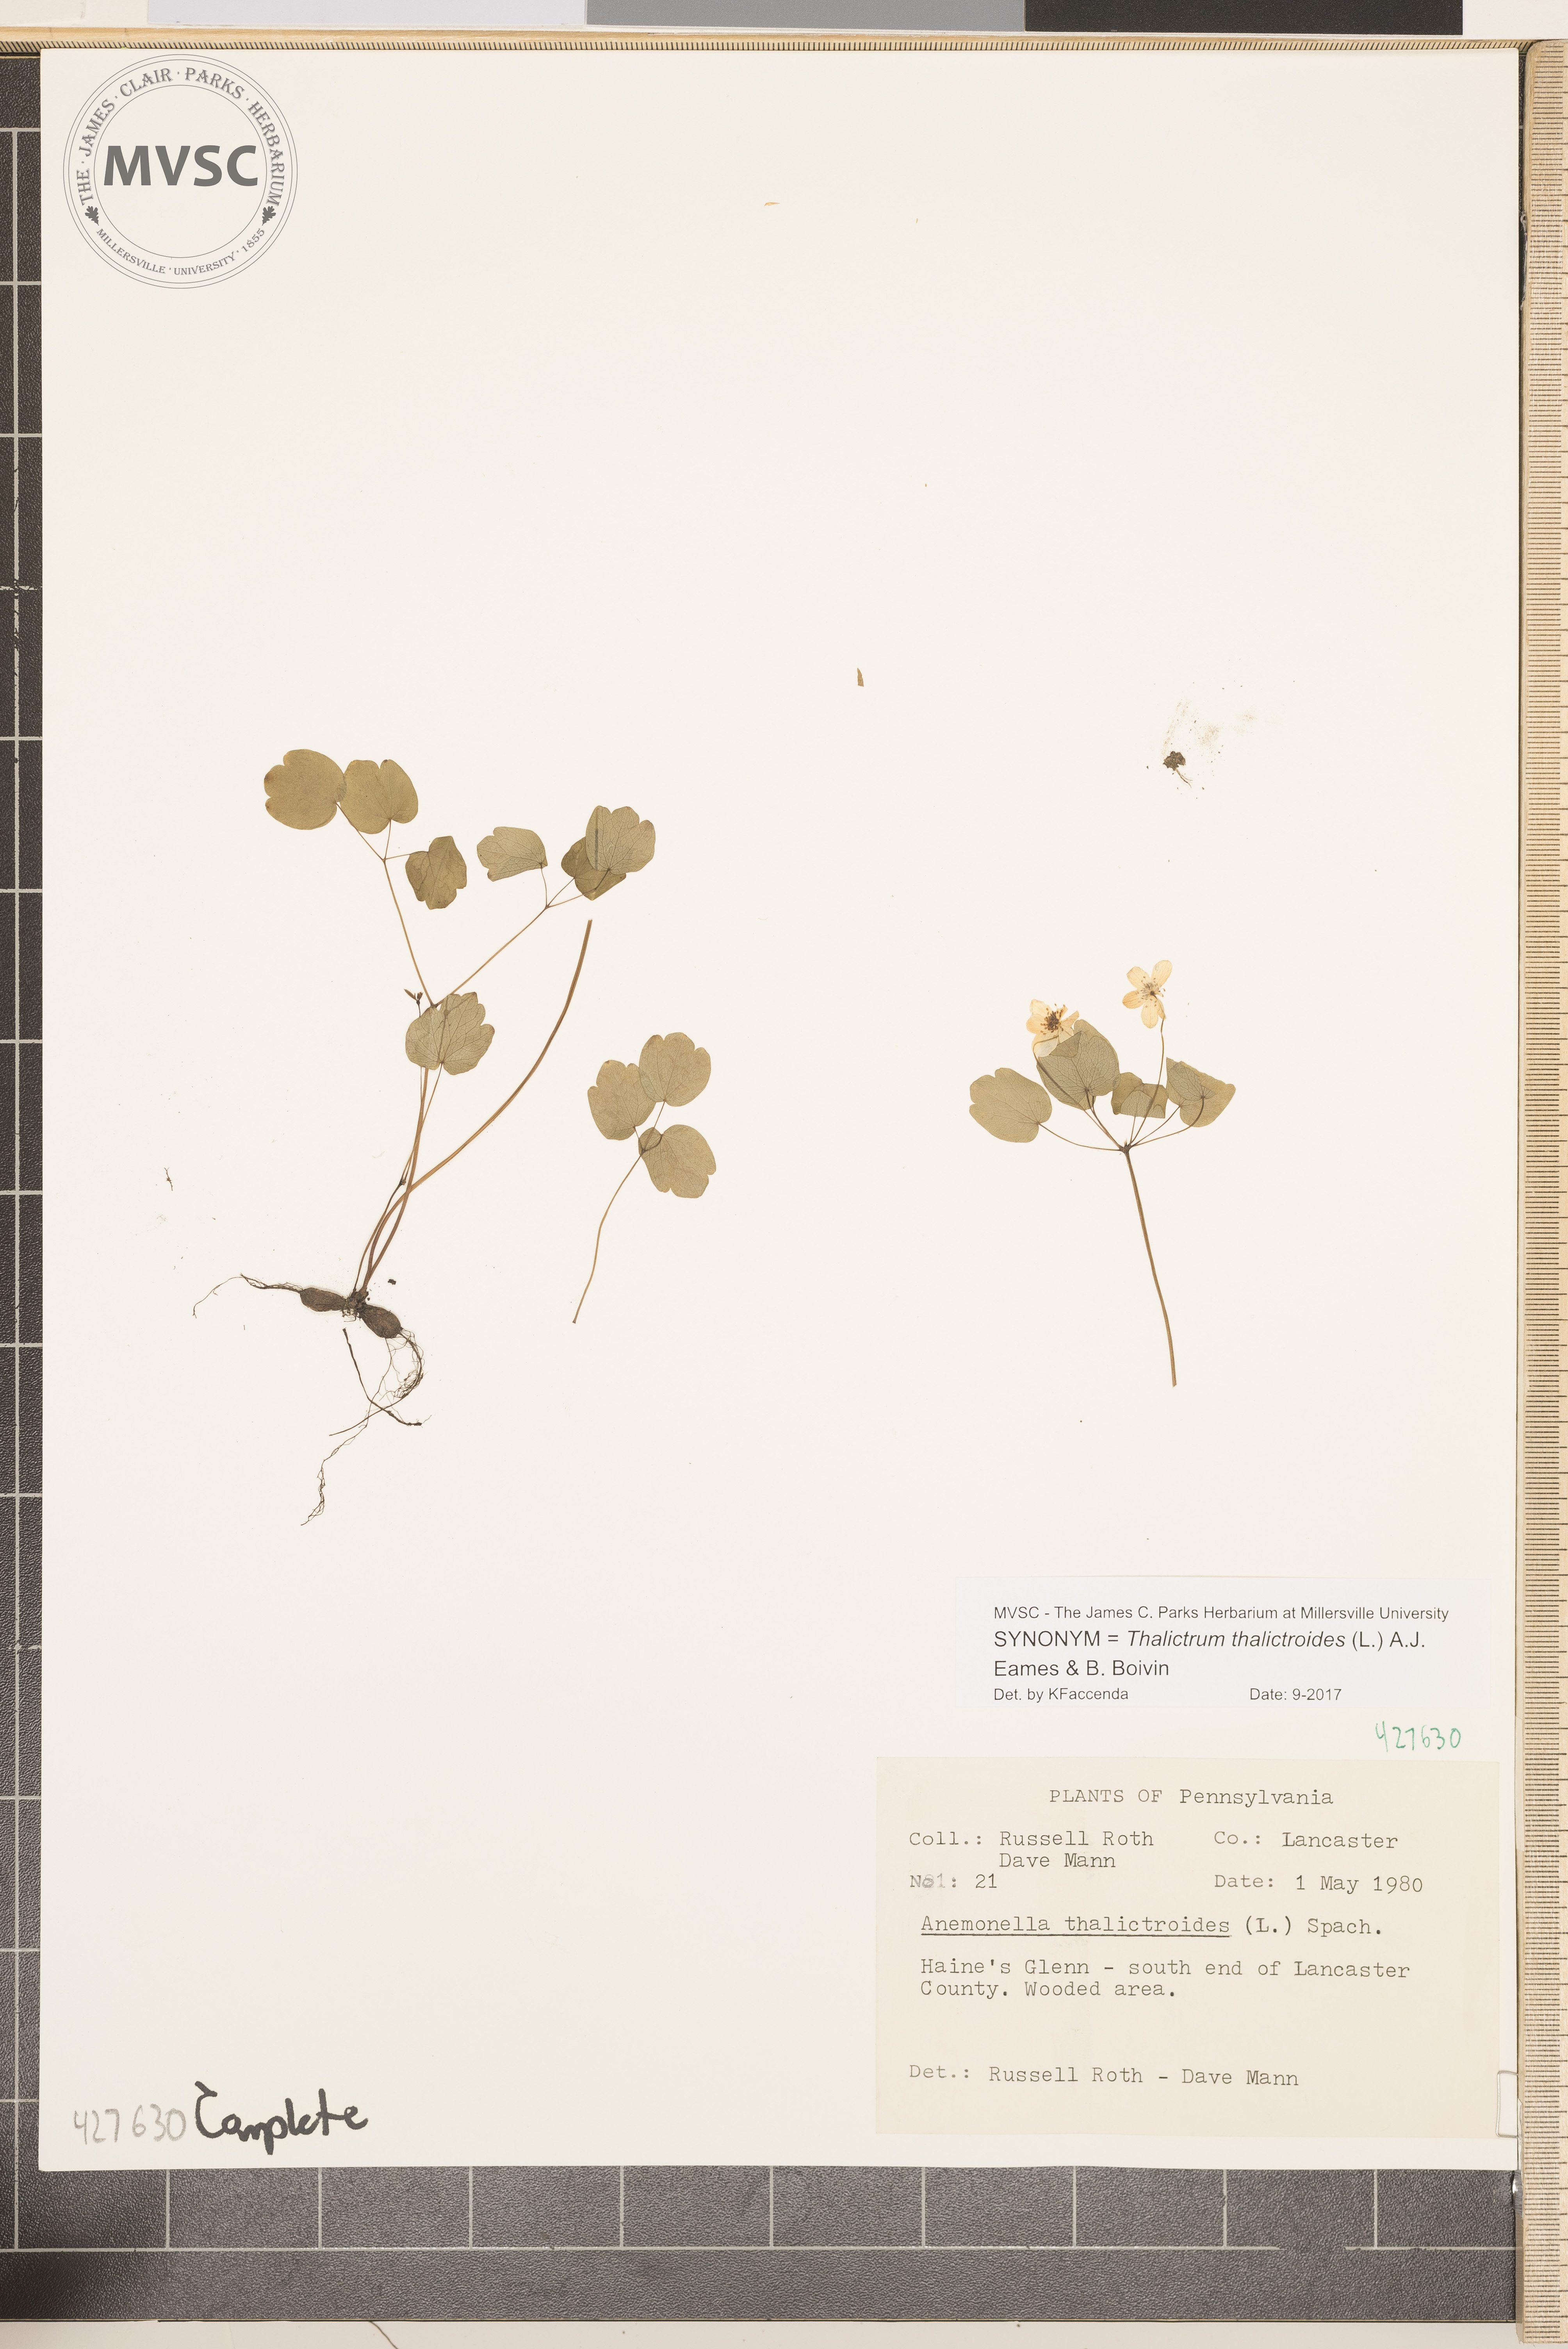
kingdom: Plantae
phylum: Tracheophyta
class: Magnoliopsida
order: Ranunculales
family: Ranunculaceae
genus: Thalictrum
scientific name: Thalictrum thalictroides
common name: Rue anemone
